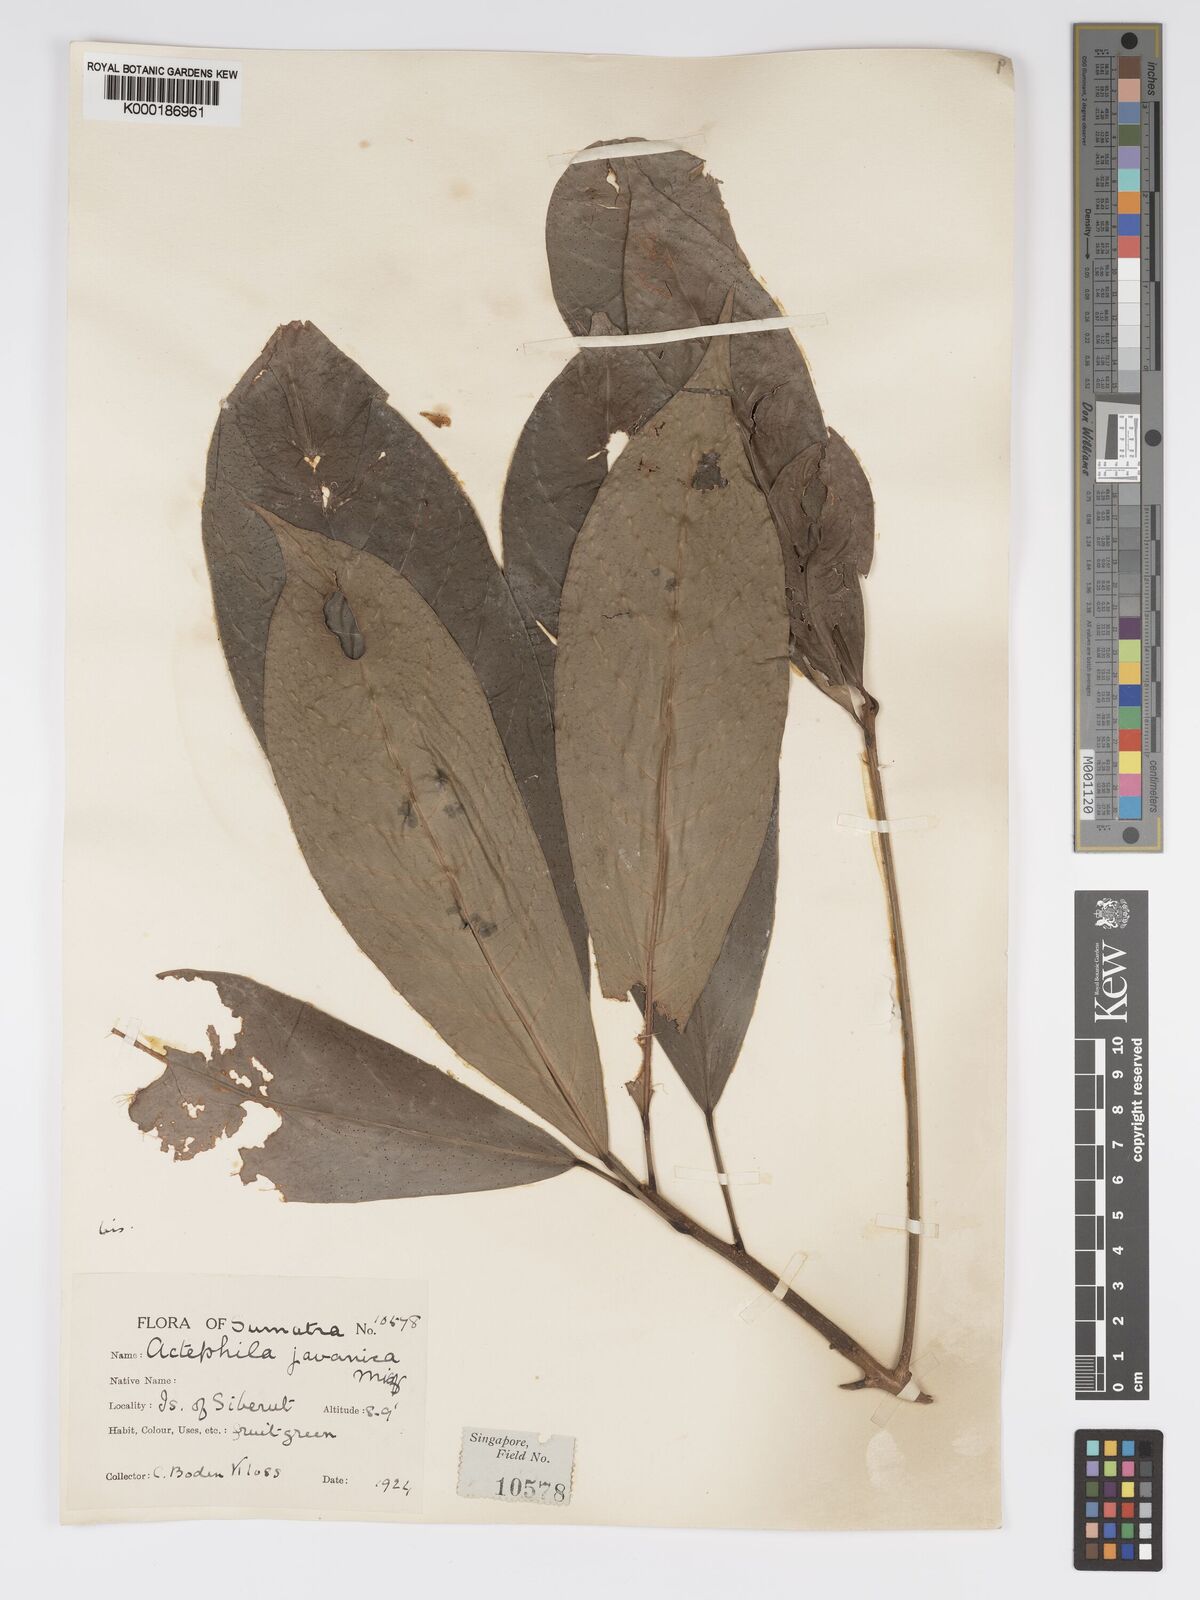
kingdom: Plantae
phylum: Tracheophyta
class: Magnoliopsida
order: Malpighiales
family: Phyllanthaceae
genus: Actephila
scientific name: Actephila
